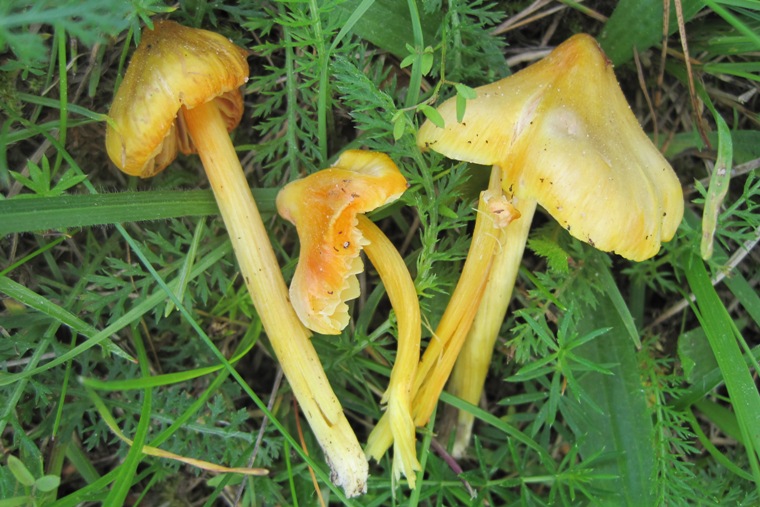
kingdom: Fungi
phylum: Basidiomycota
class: Agaricomycetes
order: Agaricales
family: Hygrophoraceae
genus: Hygrocybe
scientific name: Hygrocybe acutoconica
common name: spidspuklet vokshat
